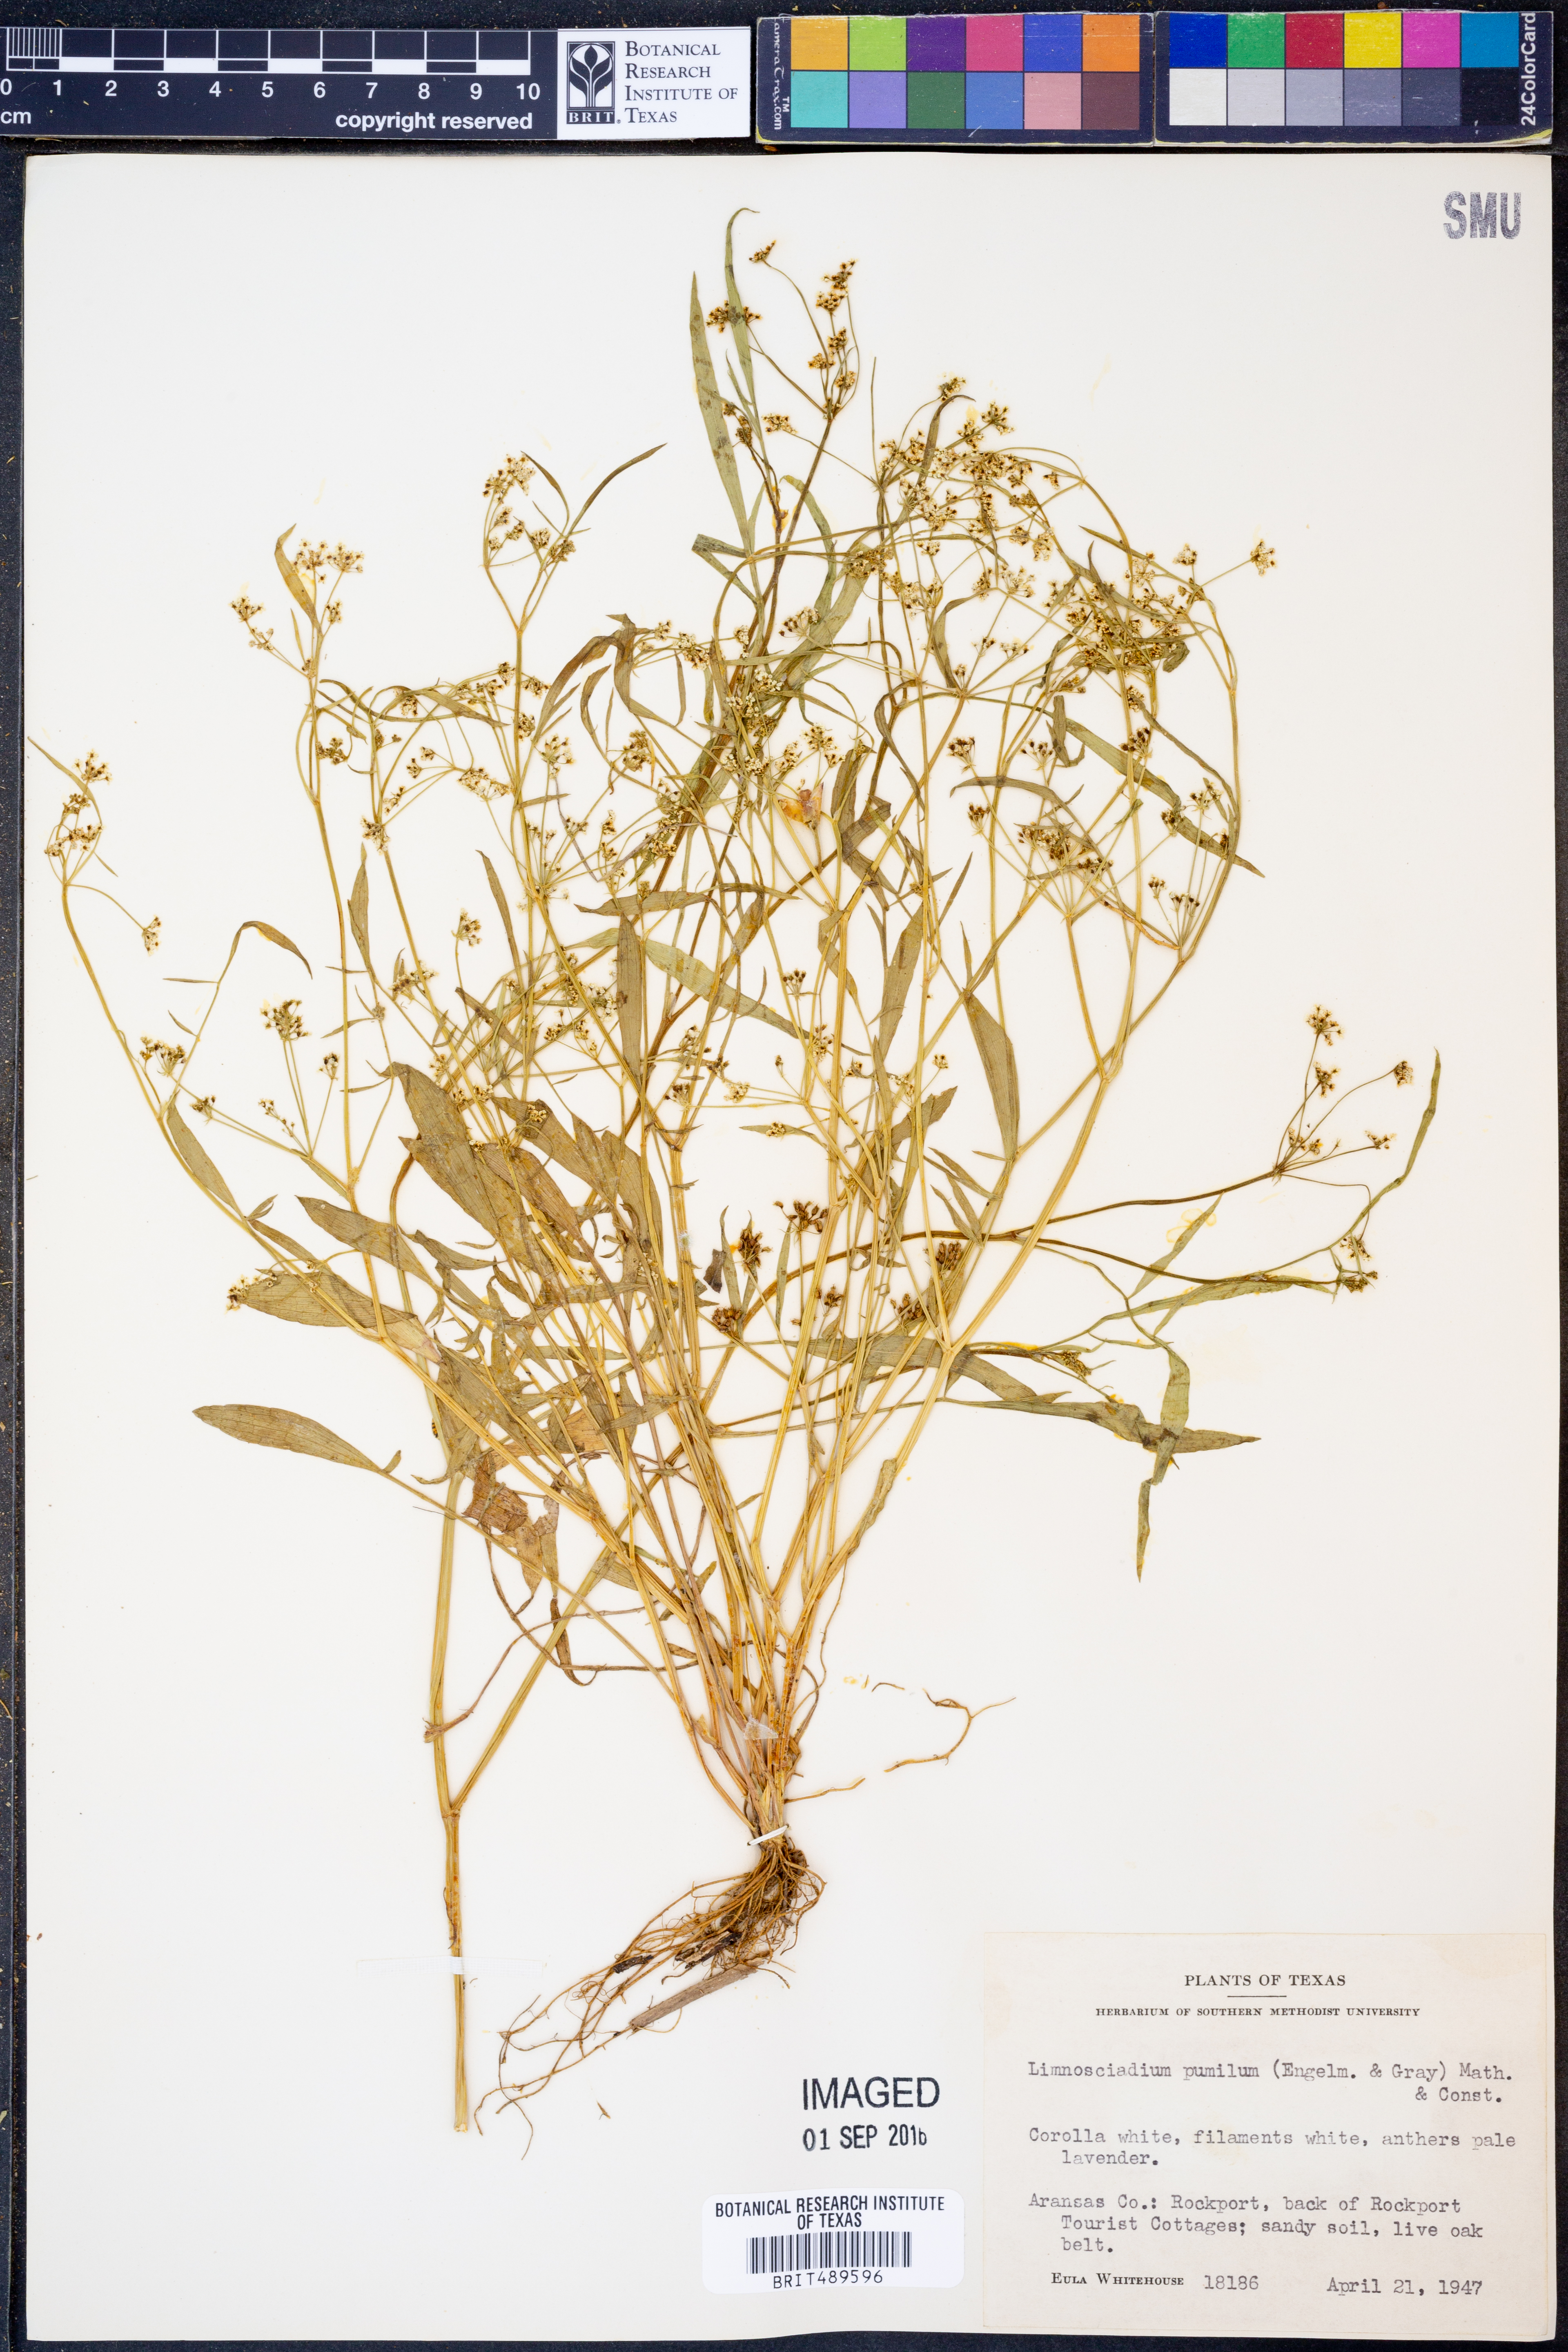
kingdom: Plantae
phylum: Tracheophyta
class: Magnoliopsida
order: Apiales
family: Apiaceae
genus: Limnosciadium
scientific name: Limnosciadium pinnatum
